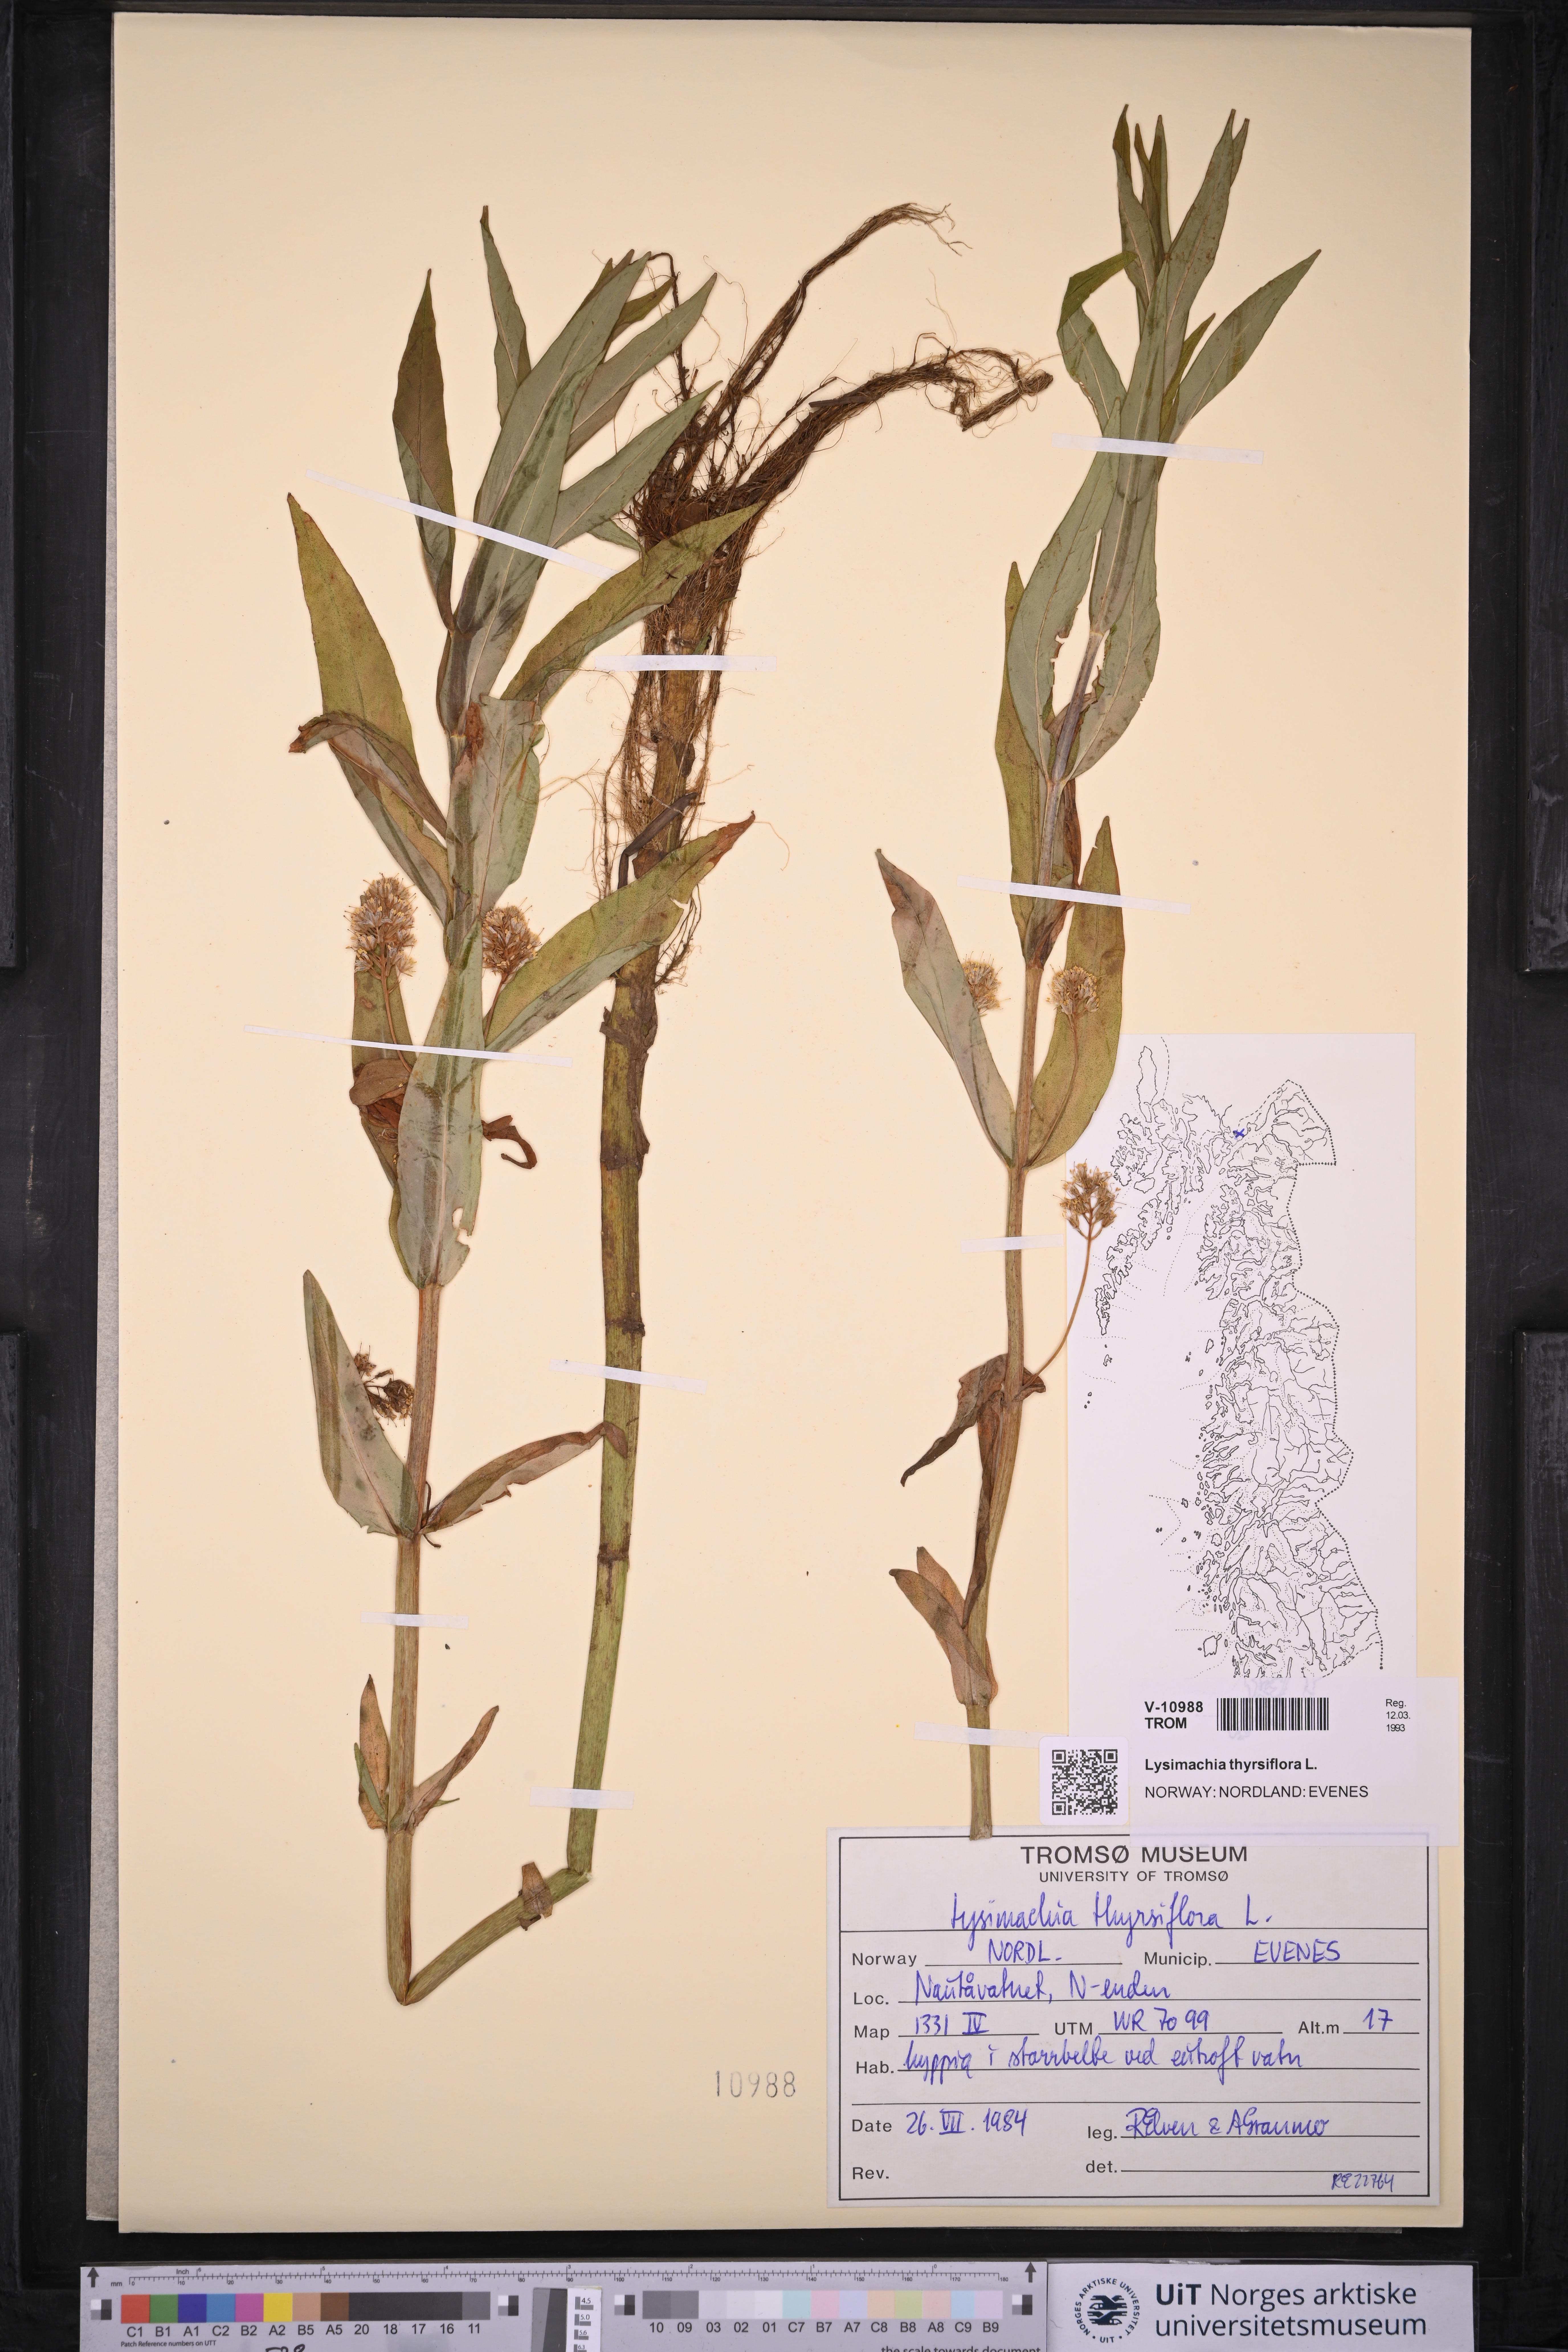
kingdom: Plantae
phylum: Tracheophyta
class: Magnoliopsida
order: Ericales
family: Primulaceae
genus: Lysimachia
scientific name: Lysimachia thyrsiflora
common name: Tufted loosestrife
